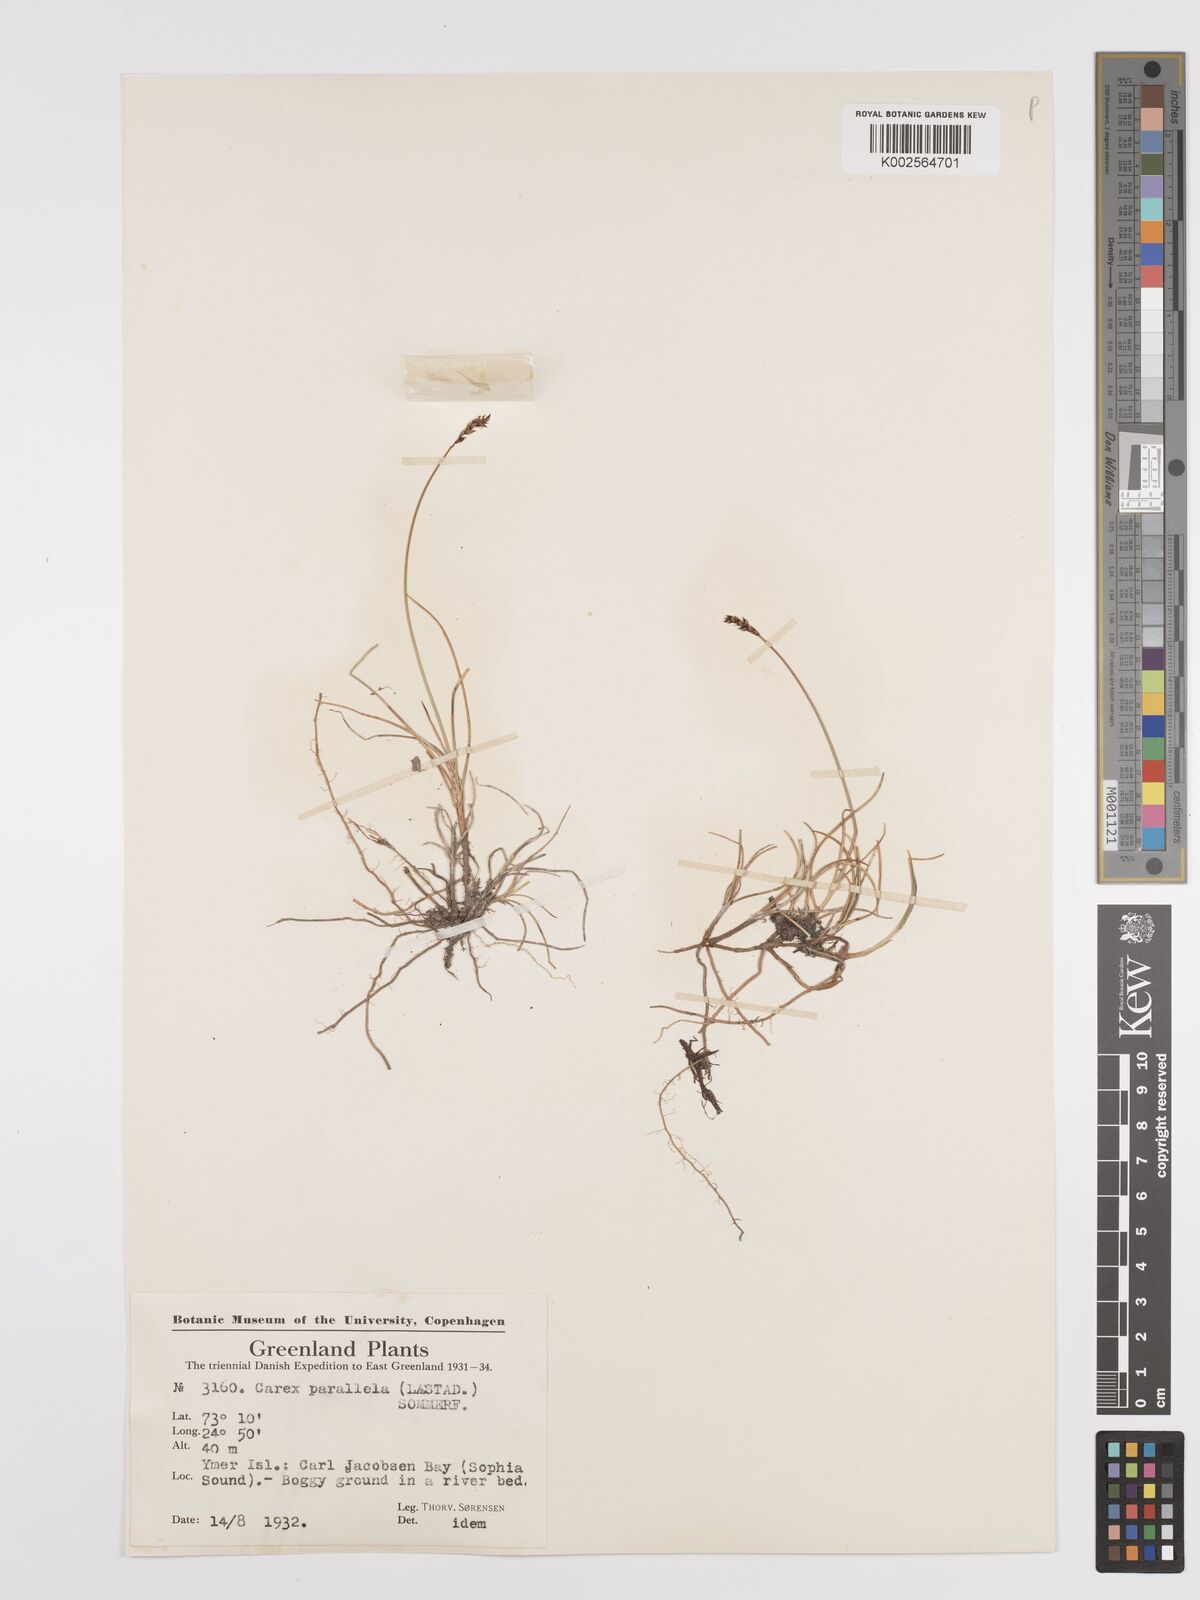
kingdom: Plantae
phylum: Tracheophyta
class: Liliopsida
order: Poales
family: Cyperaceae
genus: Carex
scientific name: Carex parallela
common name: Parallel sedge
